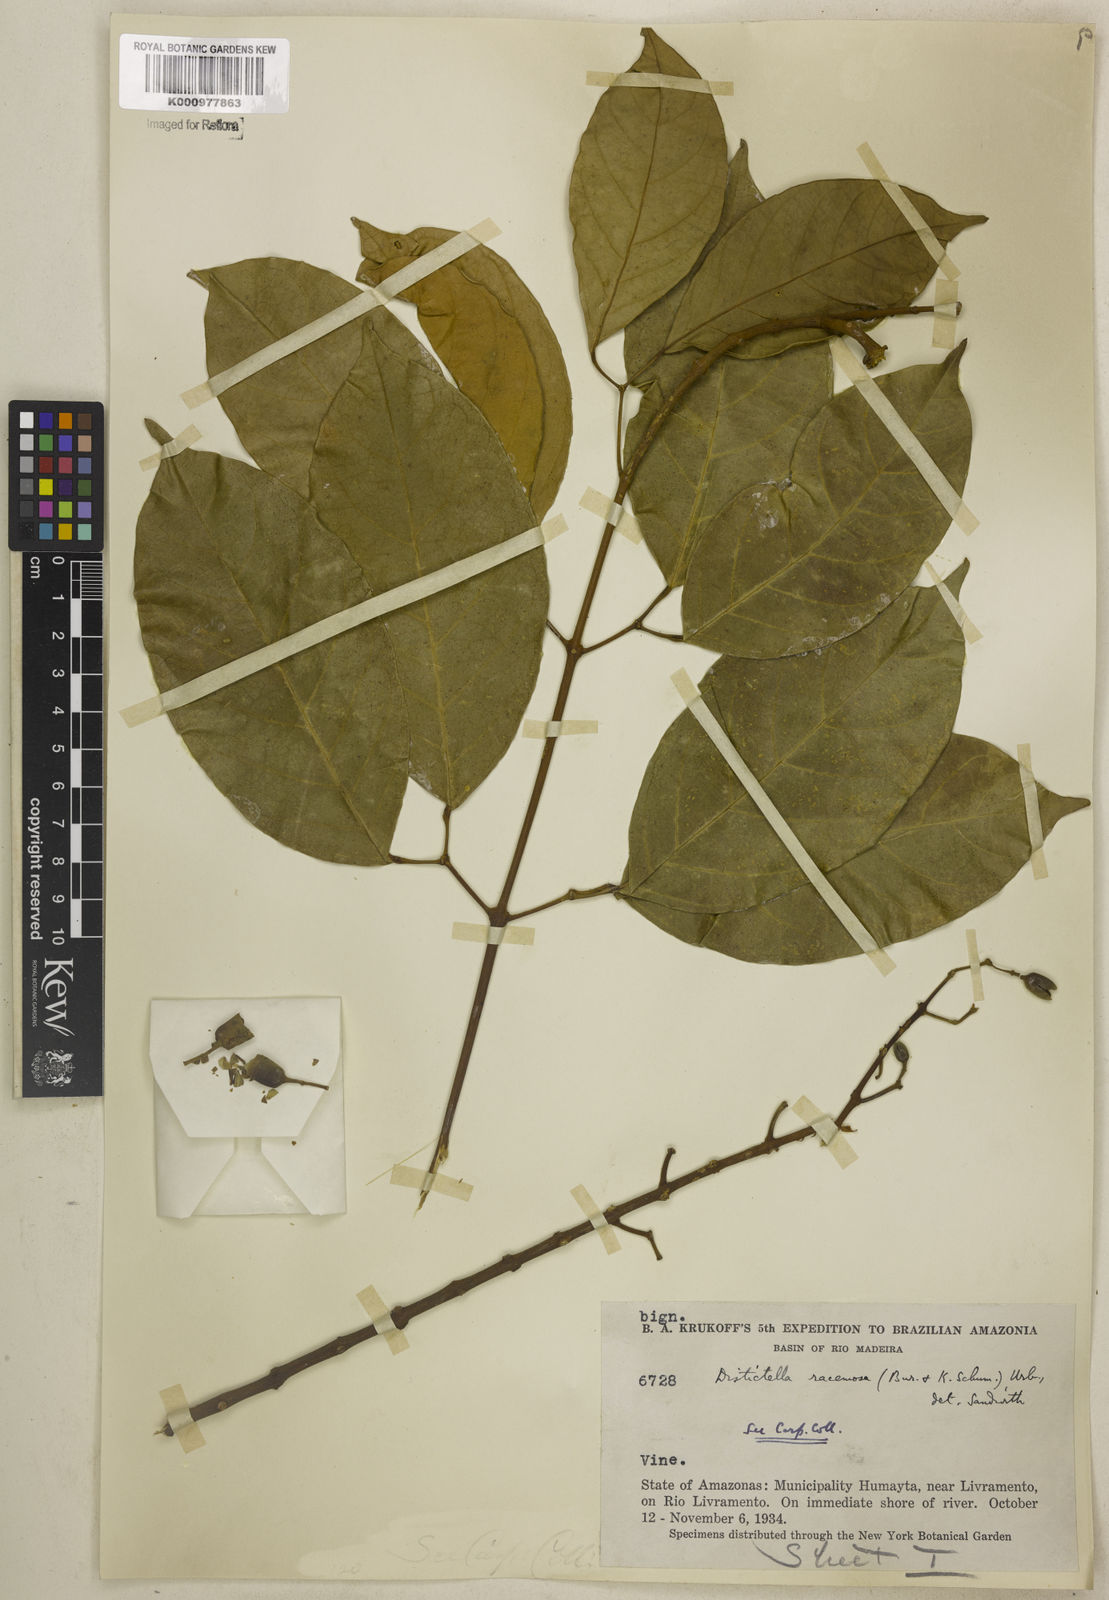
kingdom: Plantae
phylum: Tracheophyta
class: Magnoliopsida
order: Lamiales
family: Bignoniaceae
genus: Amphilophium
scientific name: Amphilophium racemosum
